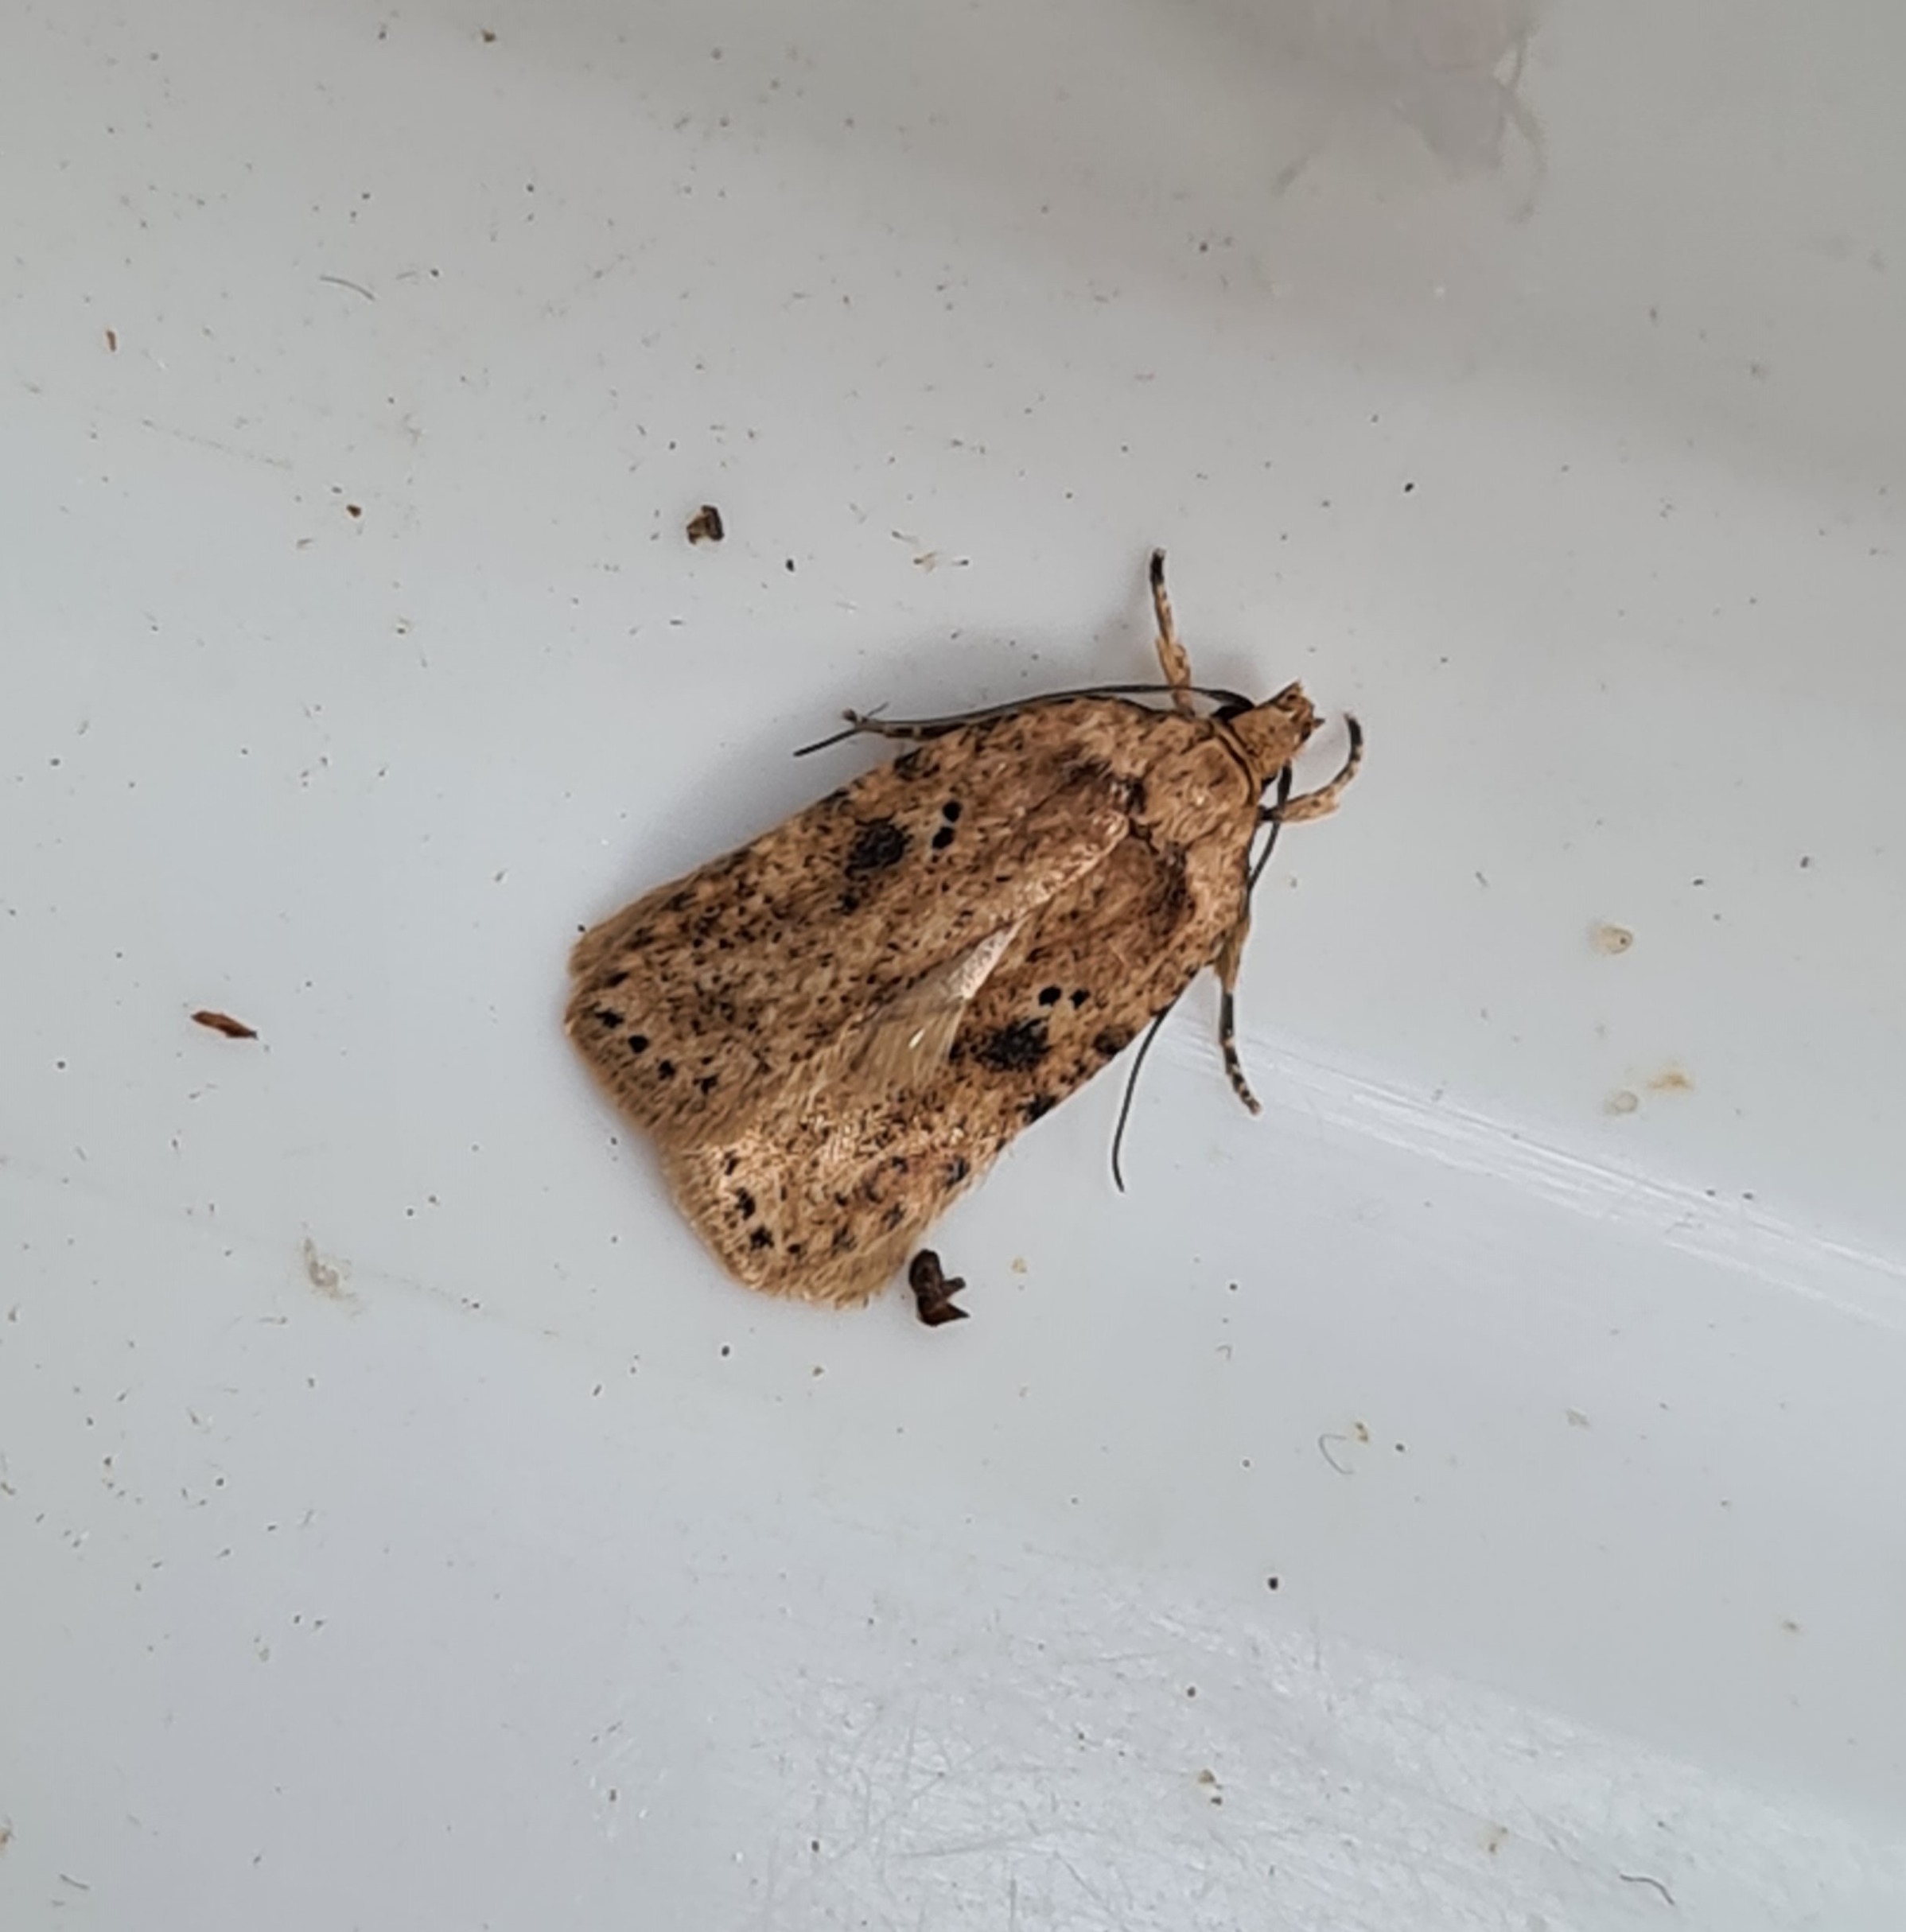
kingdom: Animalia
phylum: Arthropoda
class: Insecta
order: Lepidoptera
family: Depressariidae
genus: Agonopterix
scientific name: Agonopterix arenella
